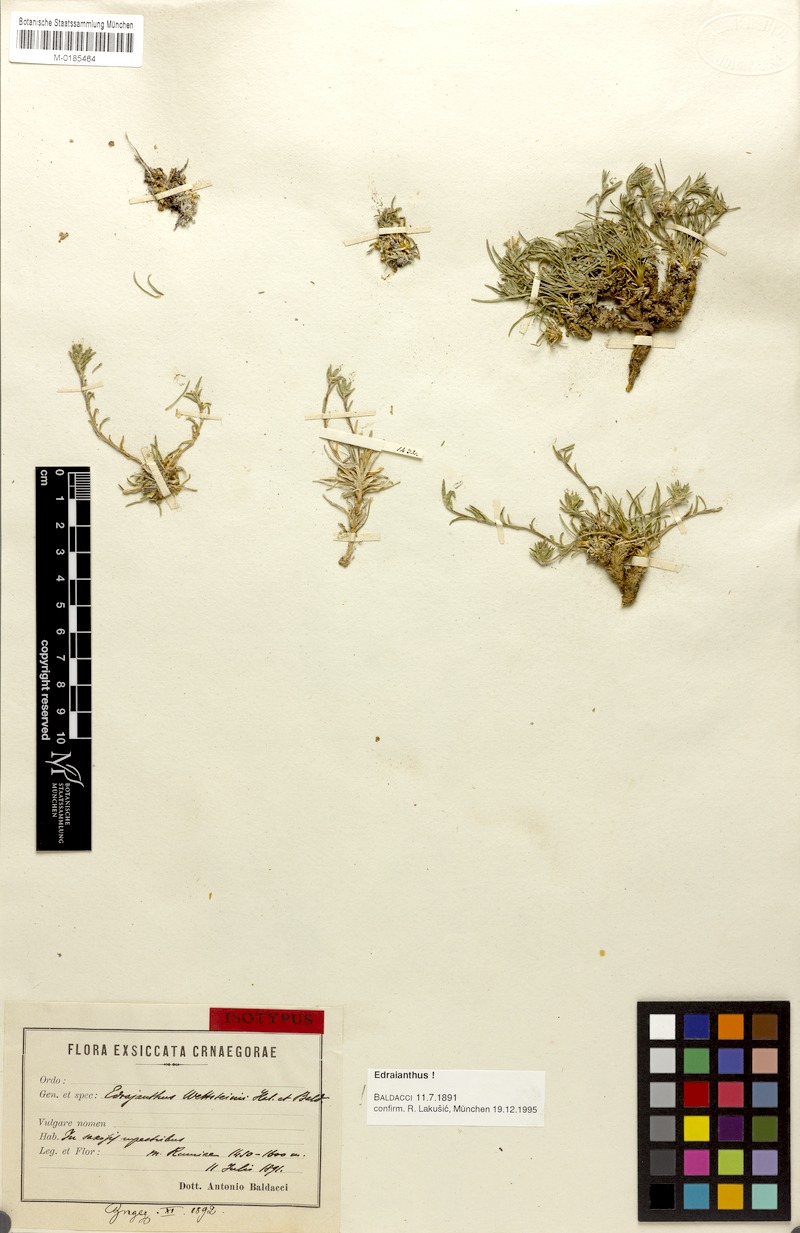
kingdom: Plantae
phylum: Tracheophyta
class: Magnoliopsida
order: Asterales
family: Campanulaceae
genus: Edraianthus
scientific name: Edraianthus wettsteinii
